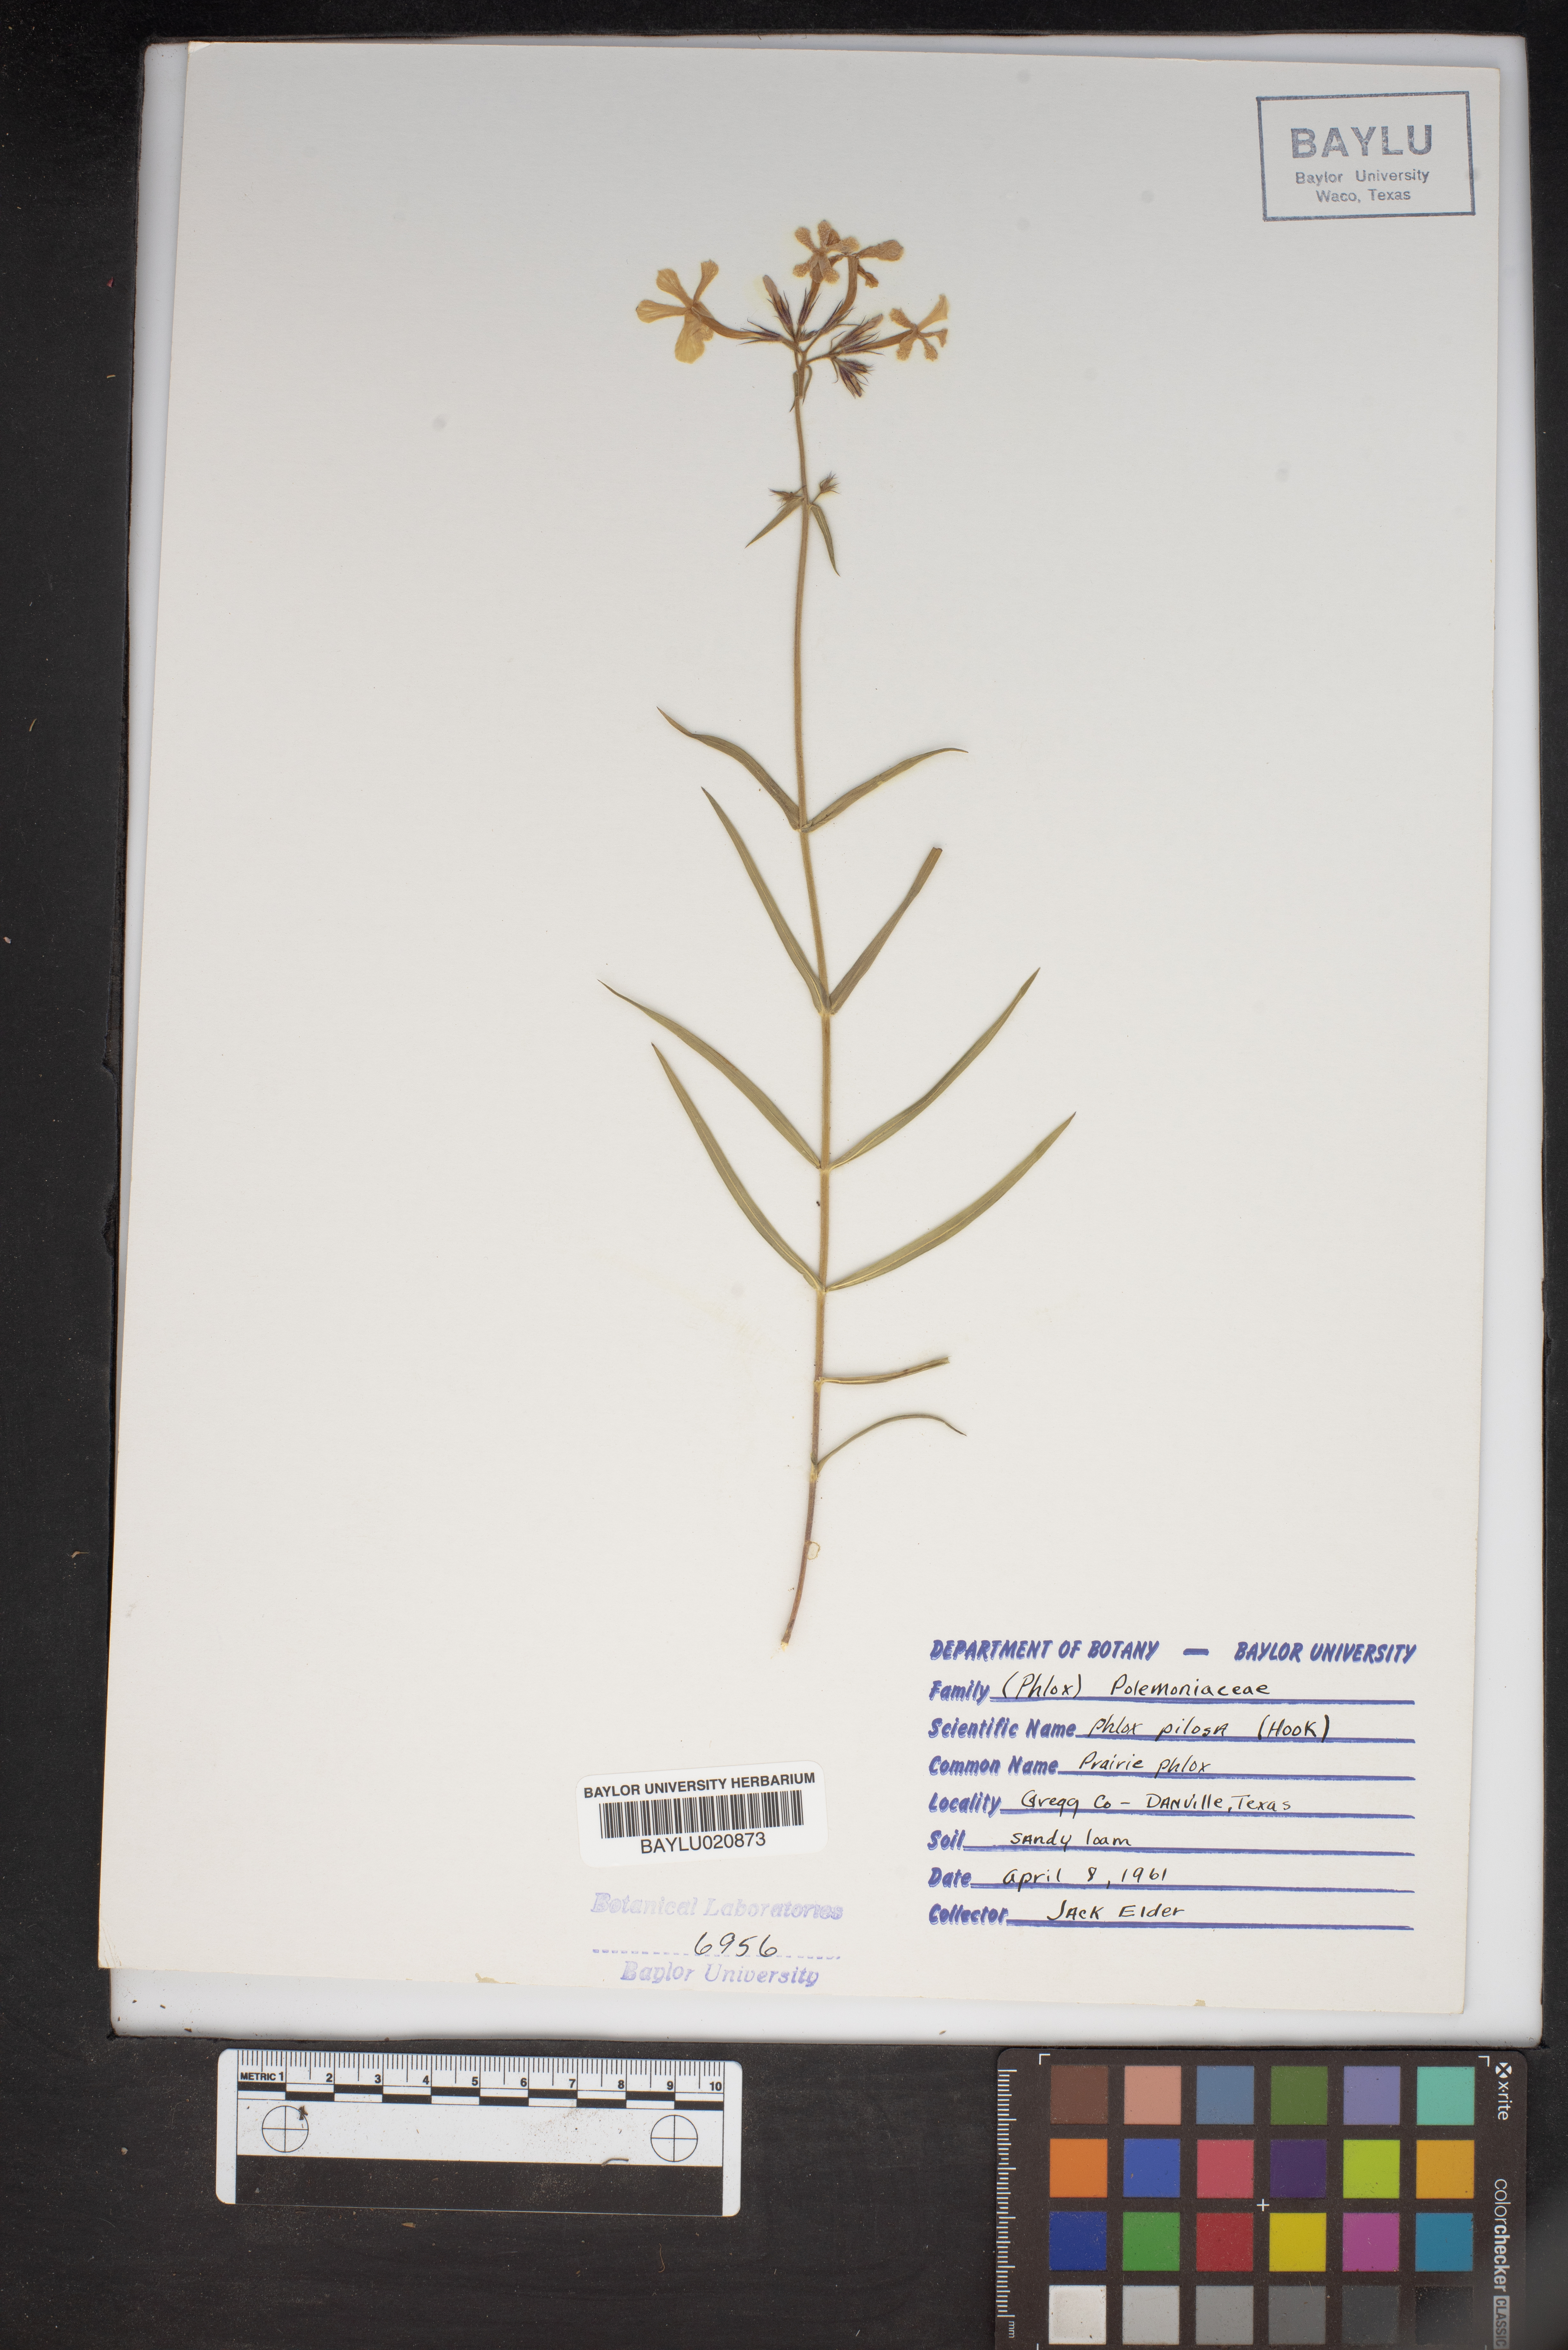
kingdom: Plantae
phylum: Tracheophyta
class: Magnoliopsida
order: Ericales
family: Polemoniaceae
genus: Phlox
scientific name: Phlox pilosa
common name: Prairie phlox
